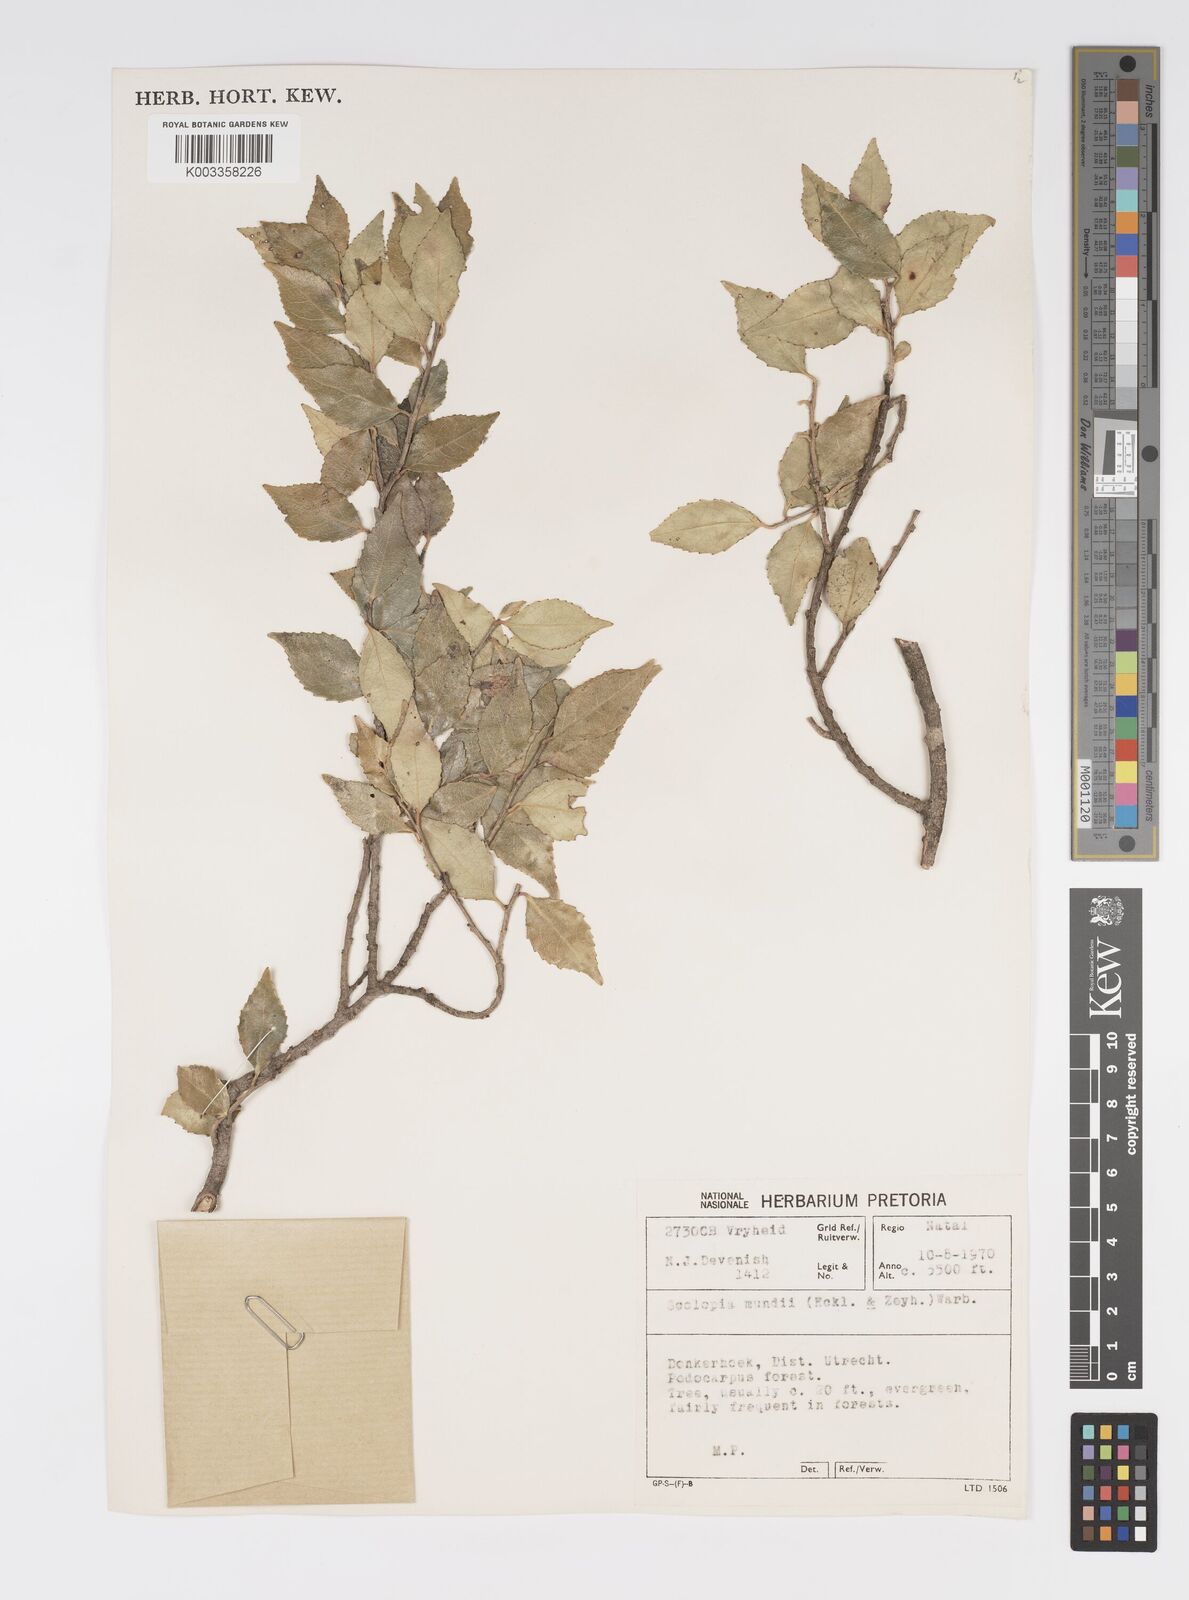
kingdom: Plantae
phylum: Tracheophyta
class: Magnoliopsida
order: Malpighiales
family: Salicaceae
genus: Scolopia
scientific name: Scolopia mundii
